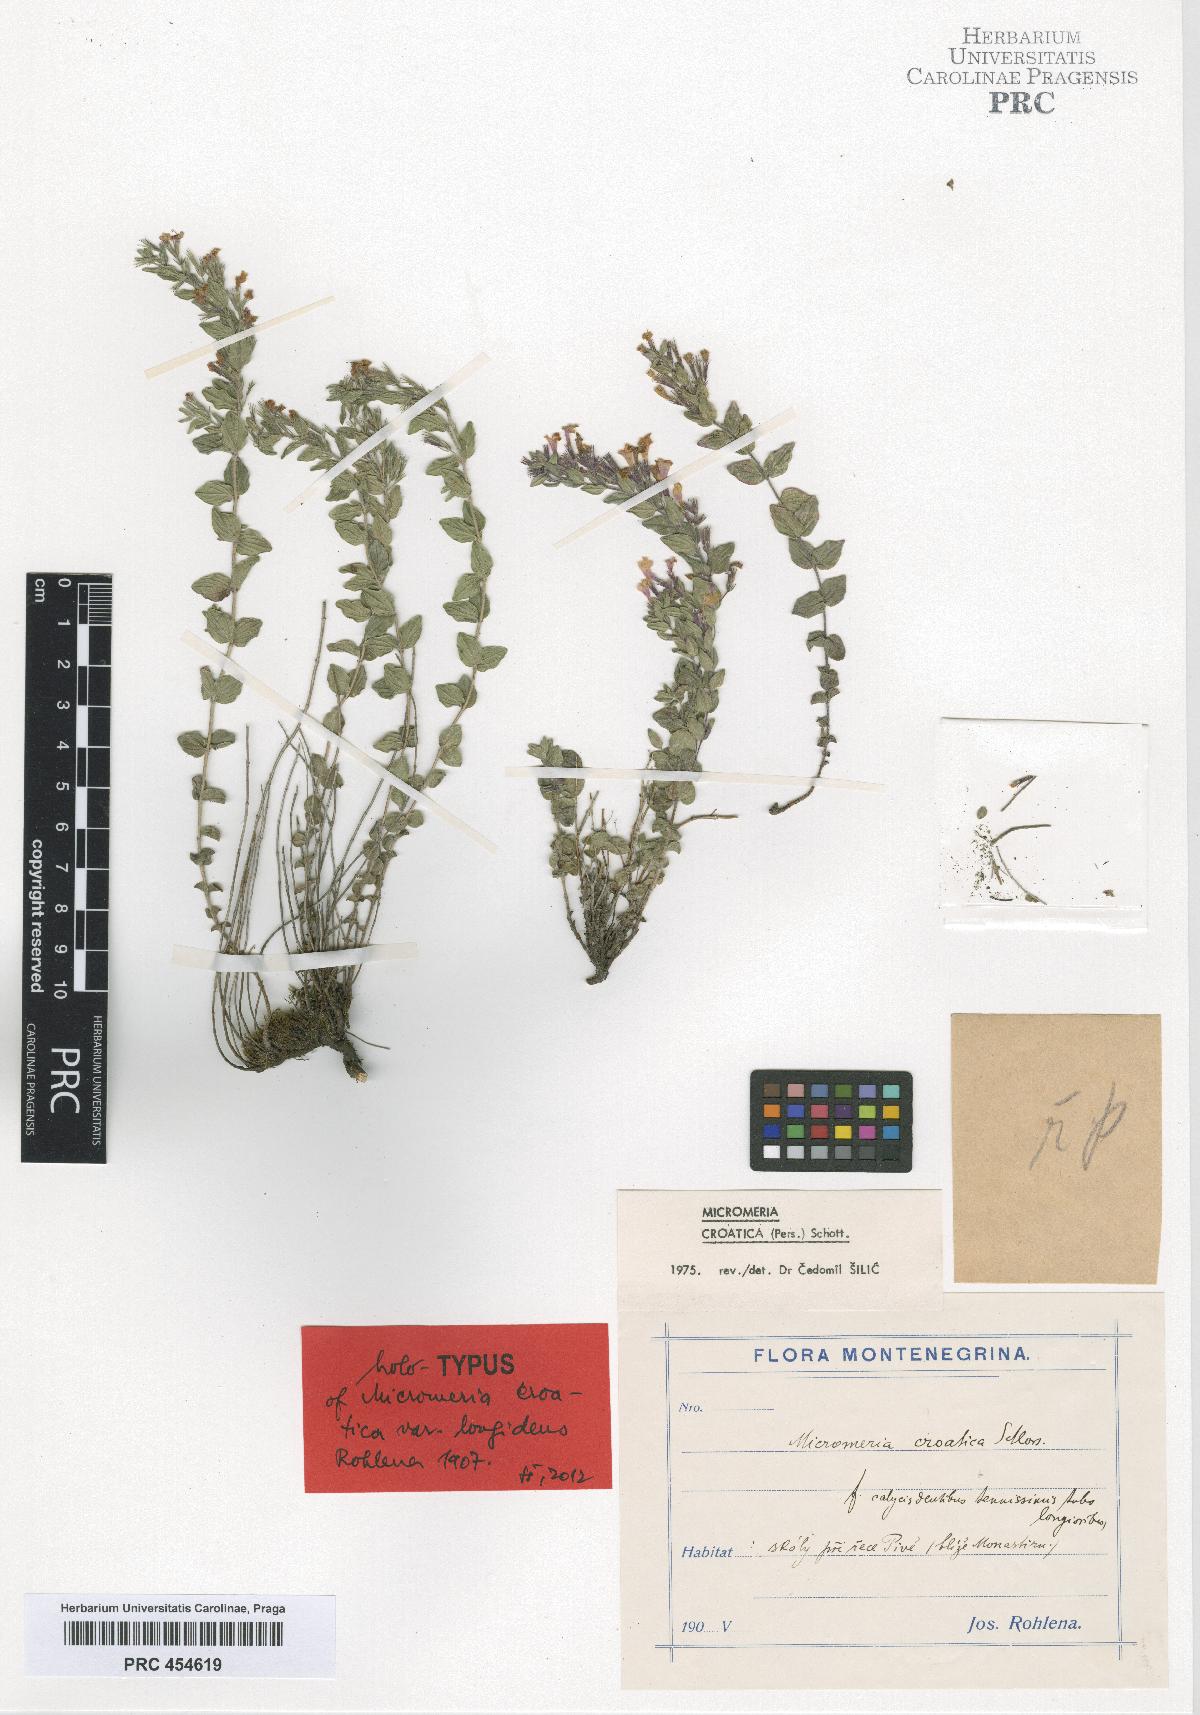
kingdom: Plantae
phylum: Tracheophyta
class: Magnoliopsida
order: Lamiales
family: Lamiaceae
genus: Micromeria
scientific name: Micromeria croatica
